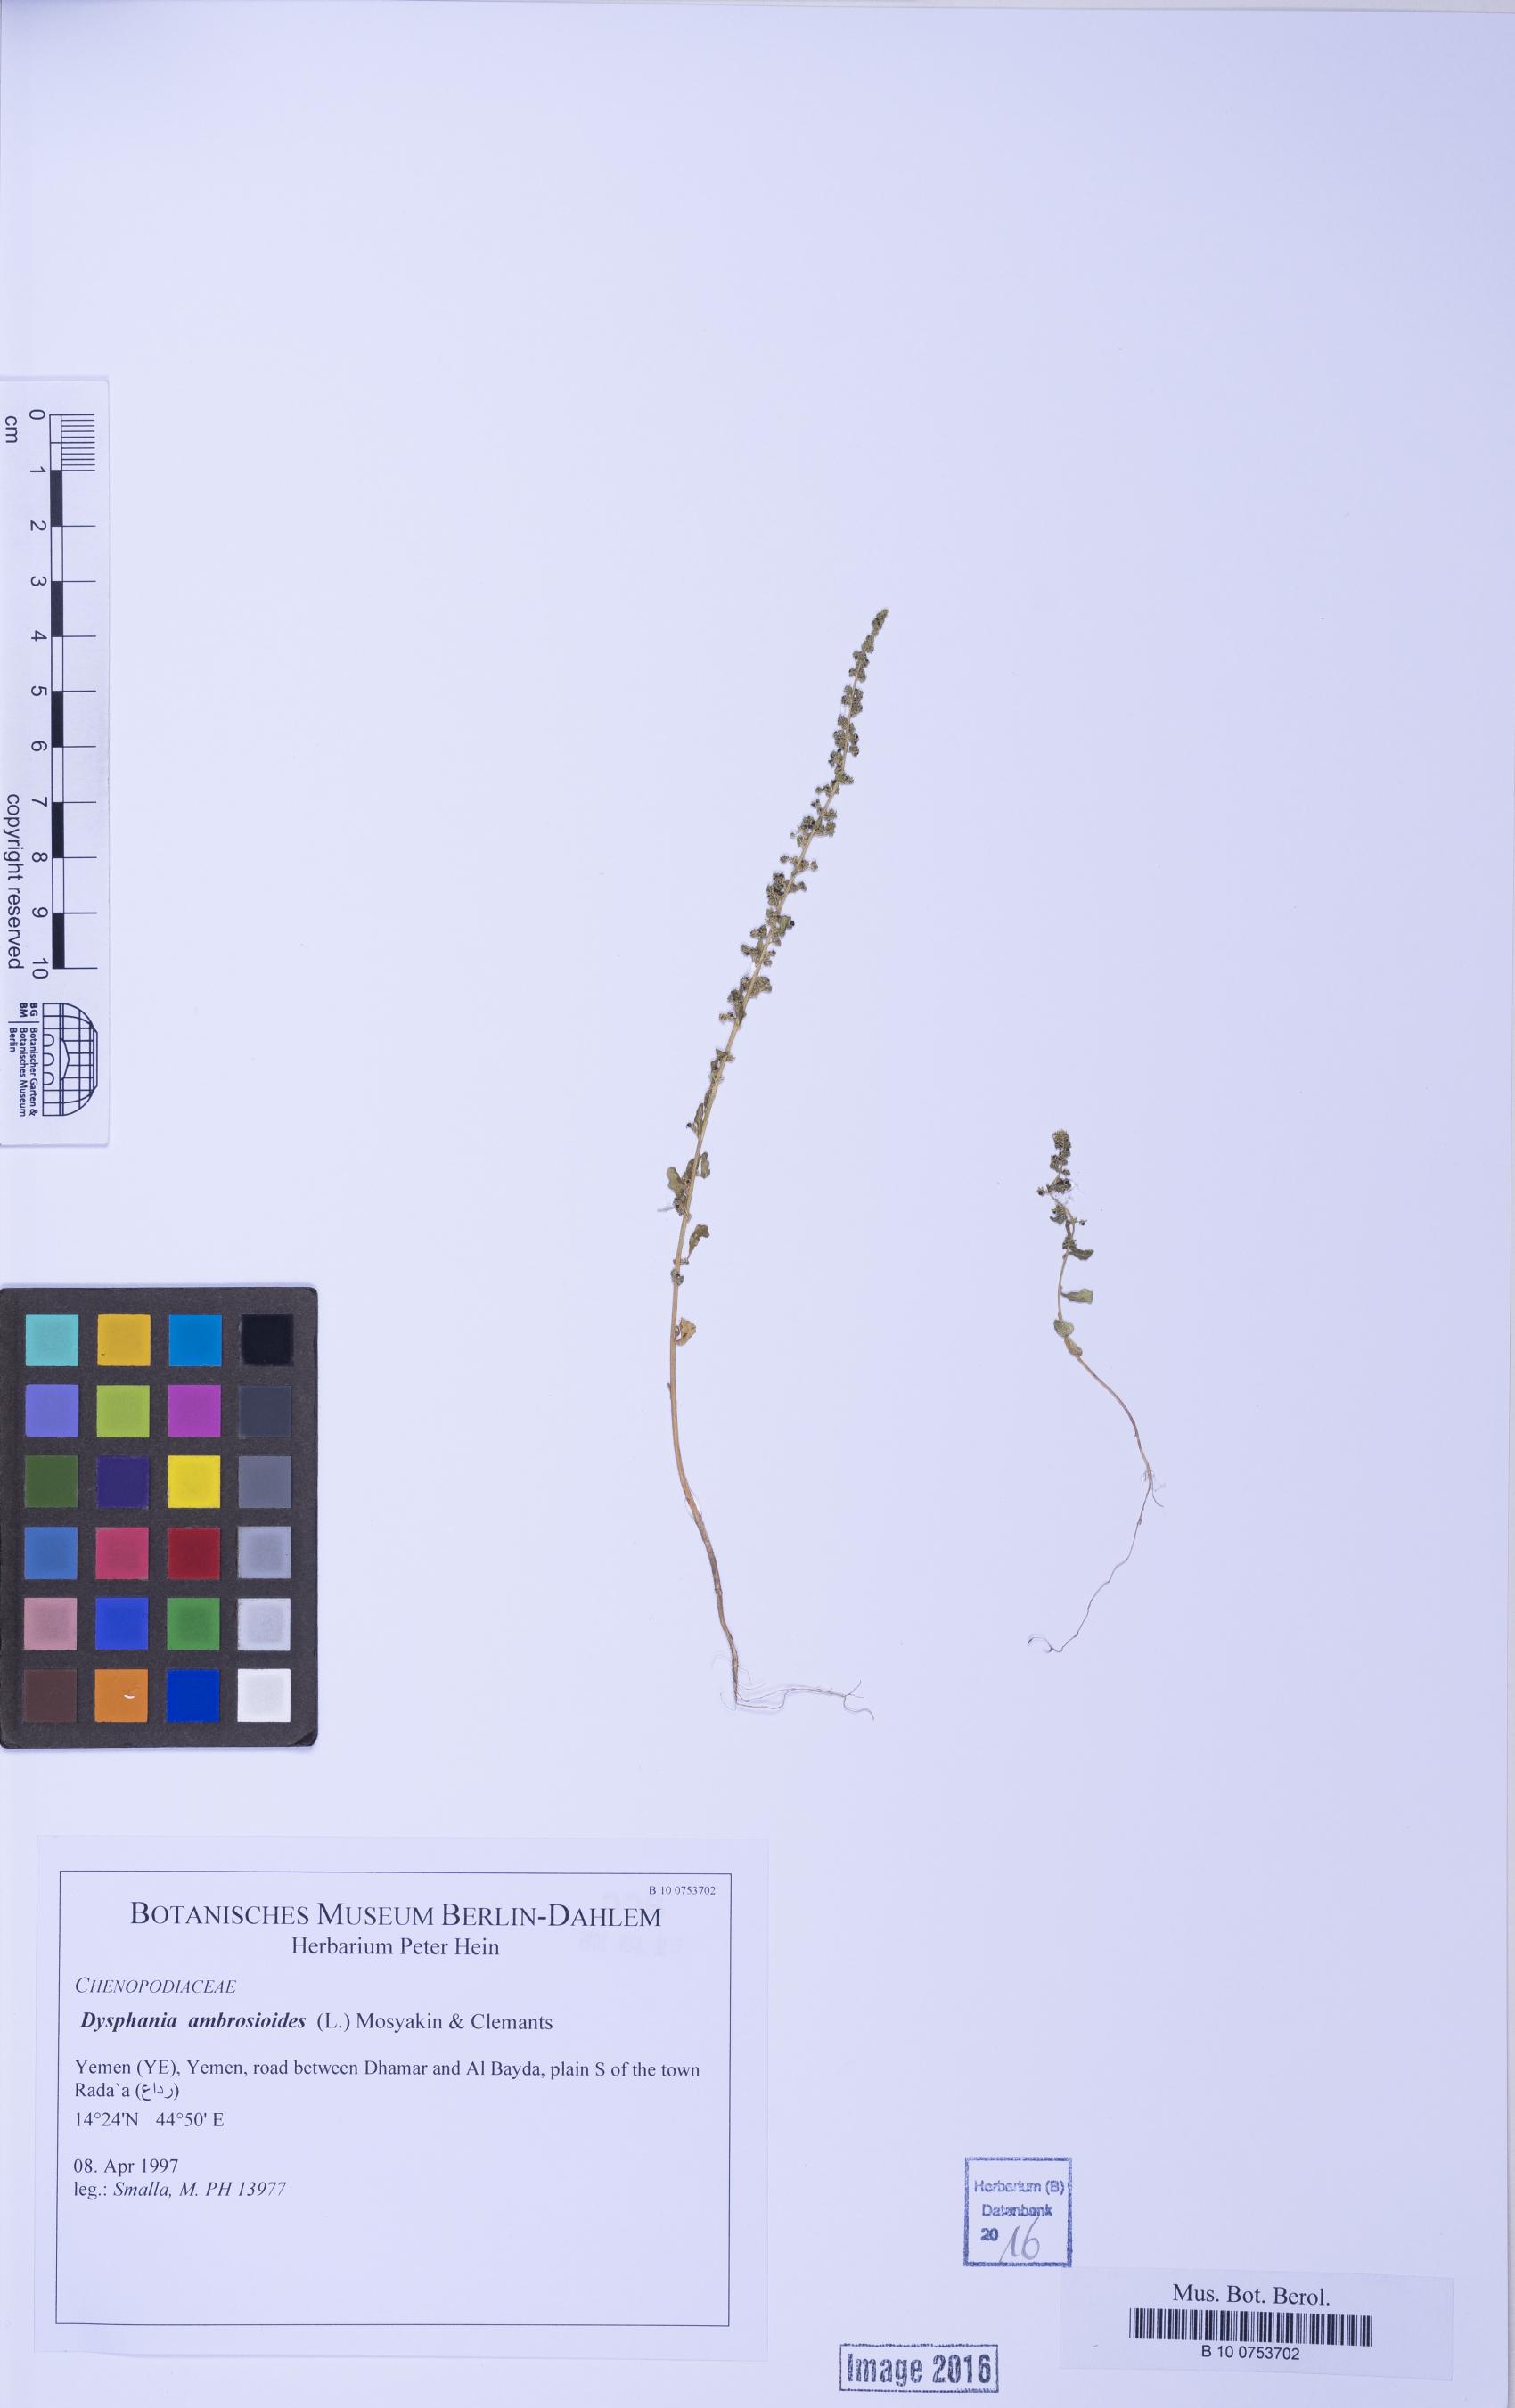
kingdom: Plantae
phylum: Tracheophyta
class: Magnoliopsida
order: Caryophyllales
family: Amaranthaceae
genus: Dysphania
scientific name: Dysphania schraderiana
